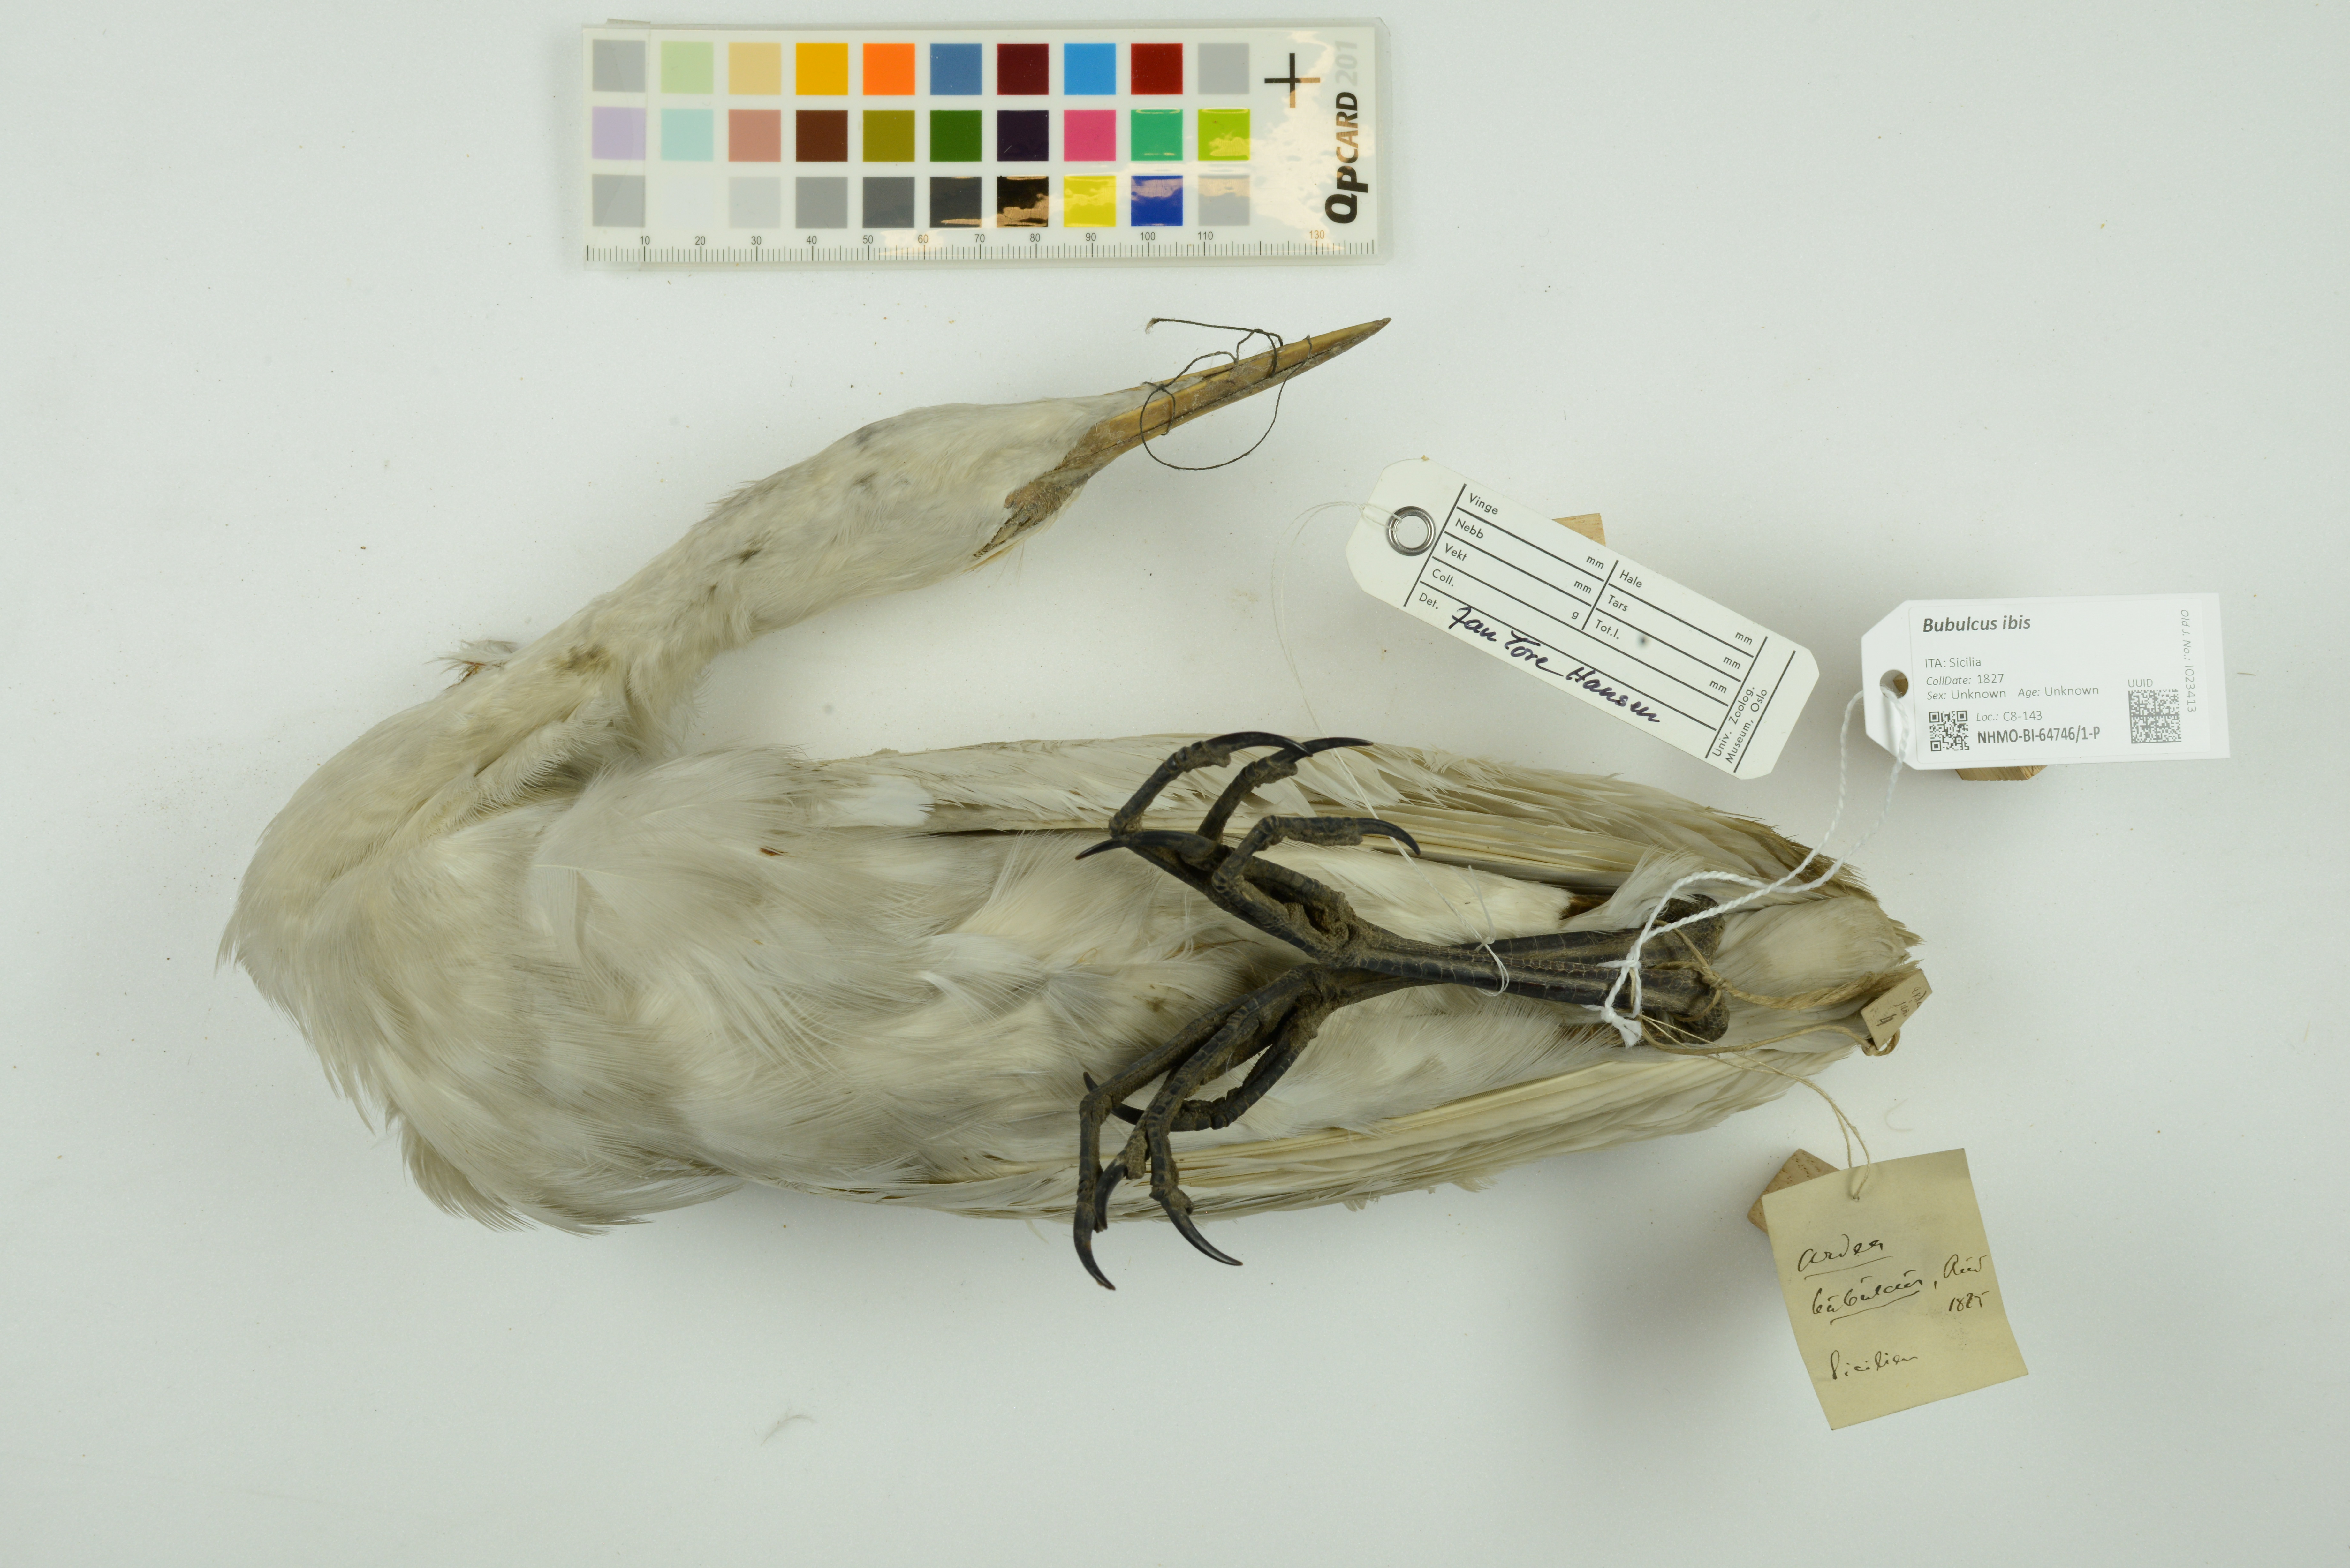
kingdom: Animalia
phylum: Chordata
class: Aves
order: Pelecaniformes
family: Ardeidae
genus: Bubulcus
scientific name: Bubulcus ibis
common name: Cattle egret
